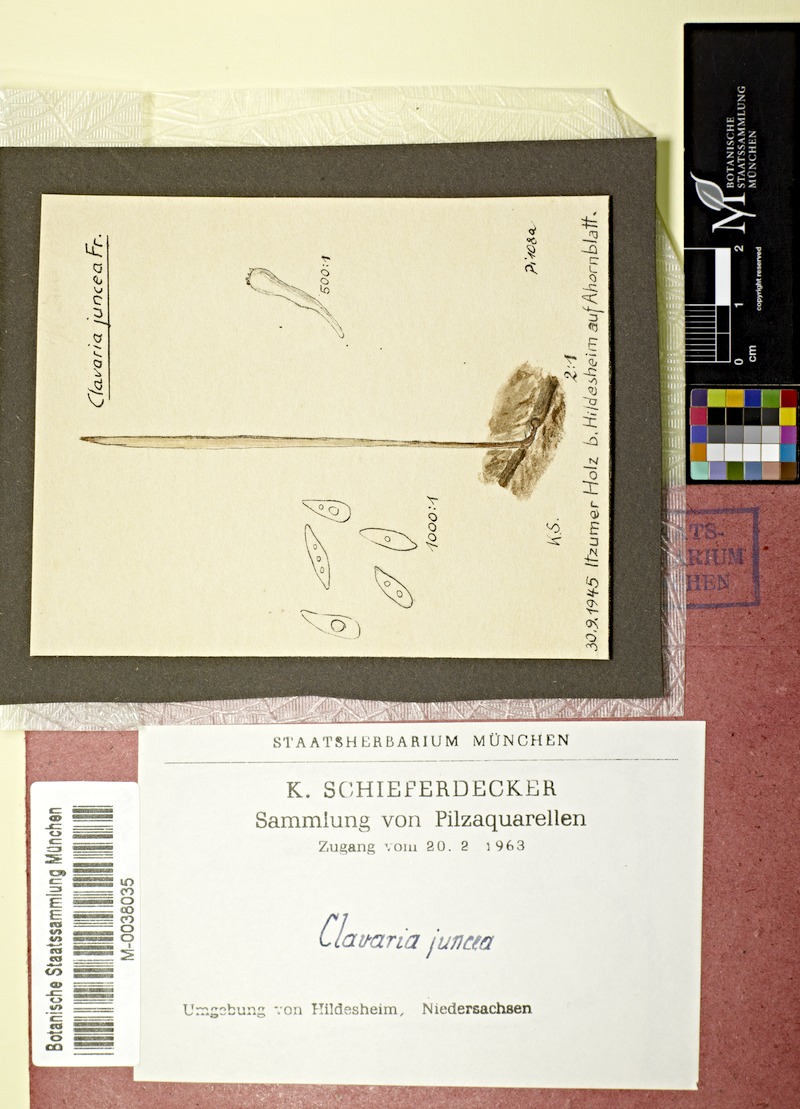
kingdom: Fungi
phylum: Basidiomycota
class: Agaricomycetes
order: Agaricales
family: Typhulaceae
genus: Typhula
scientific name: Typhula juncea
